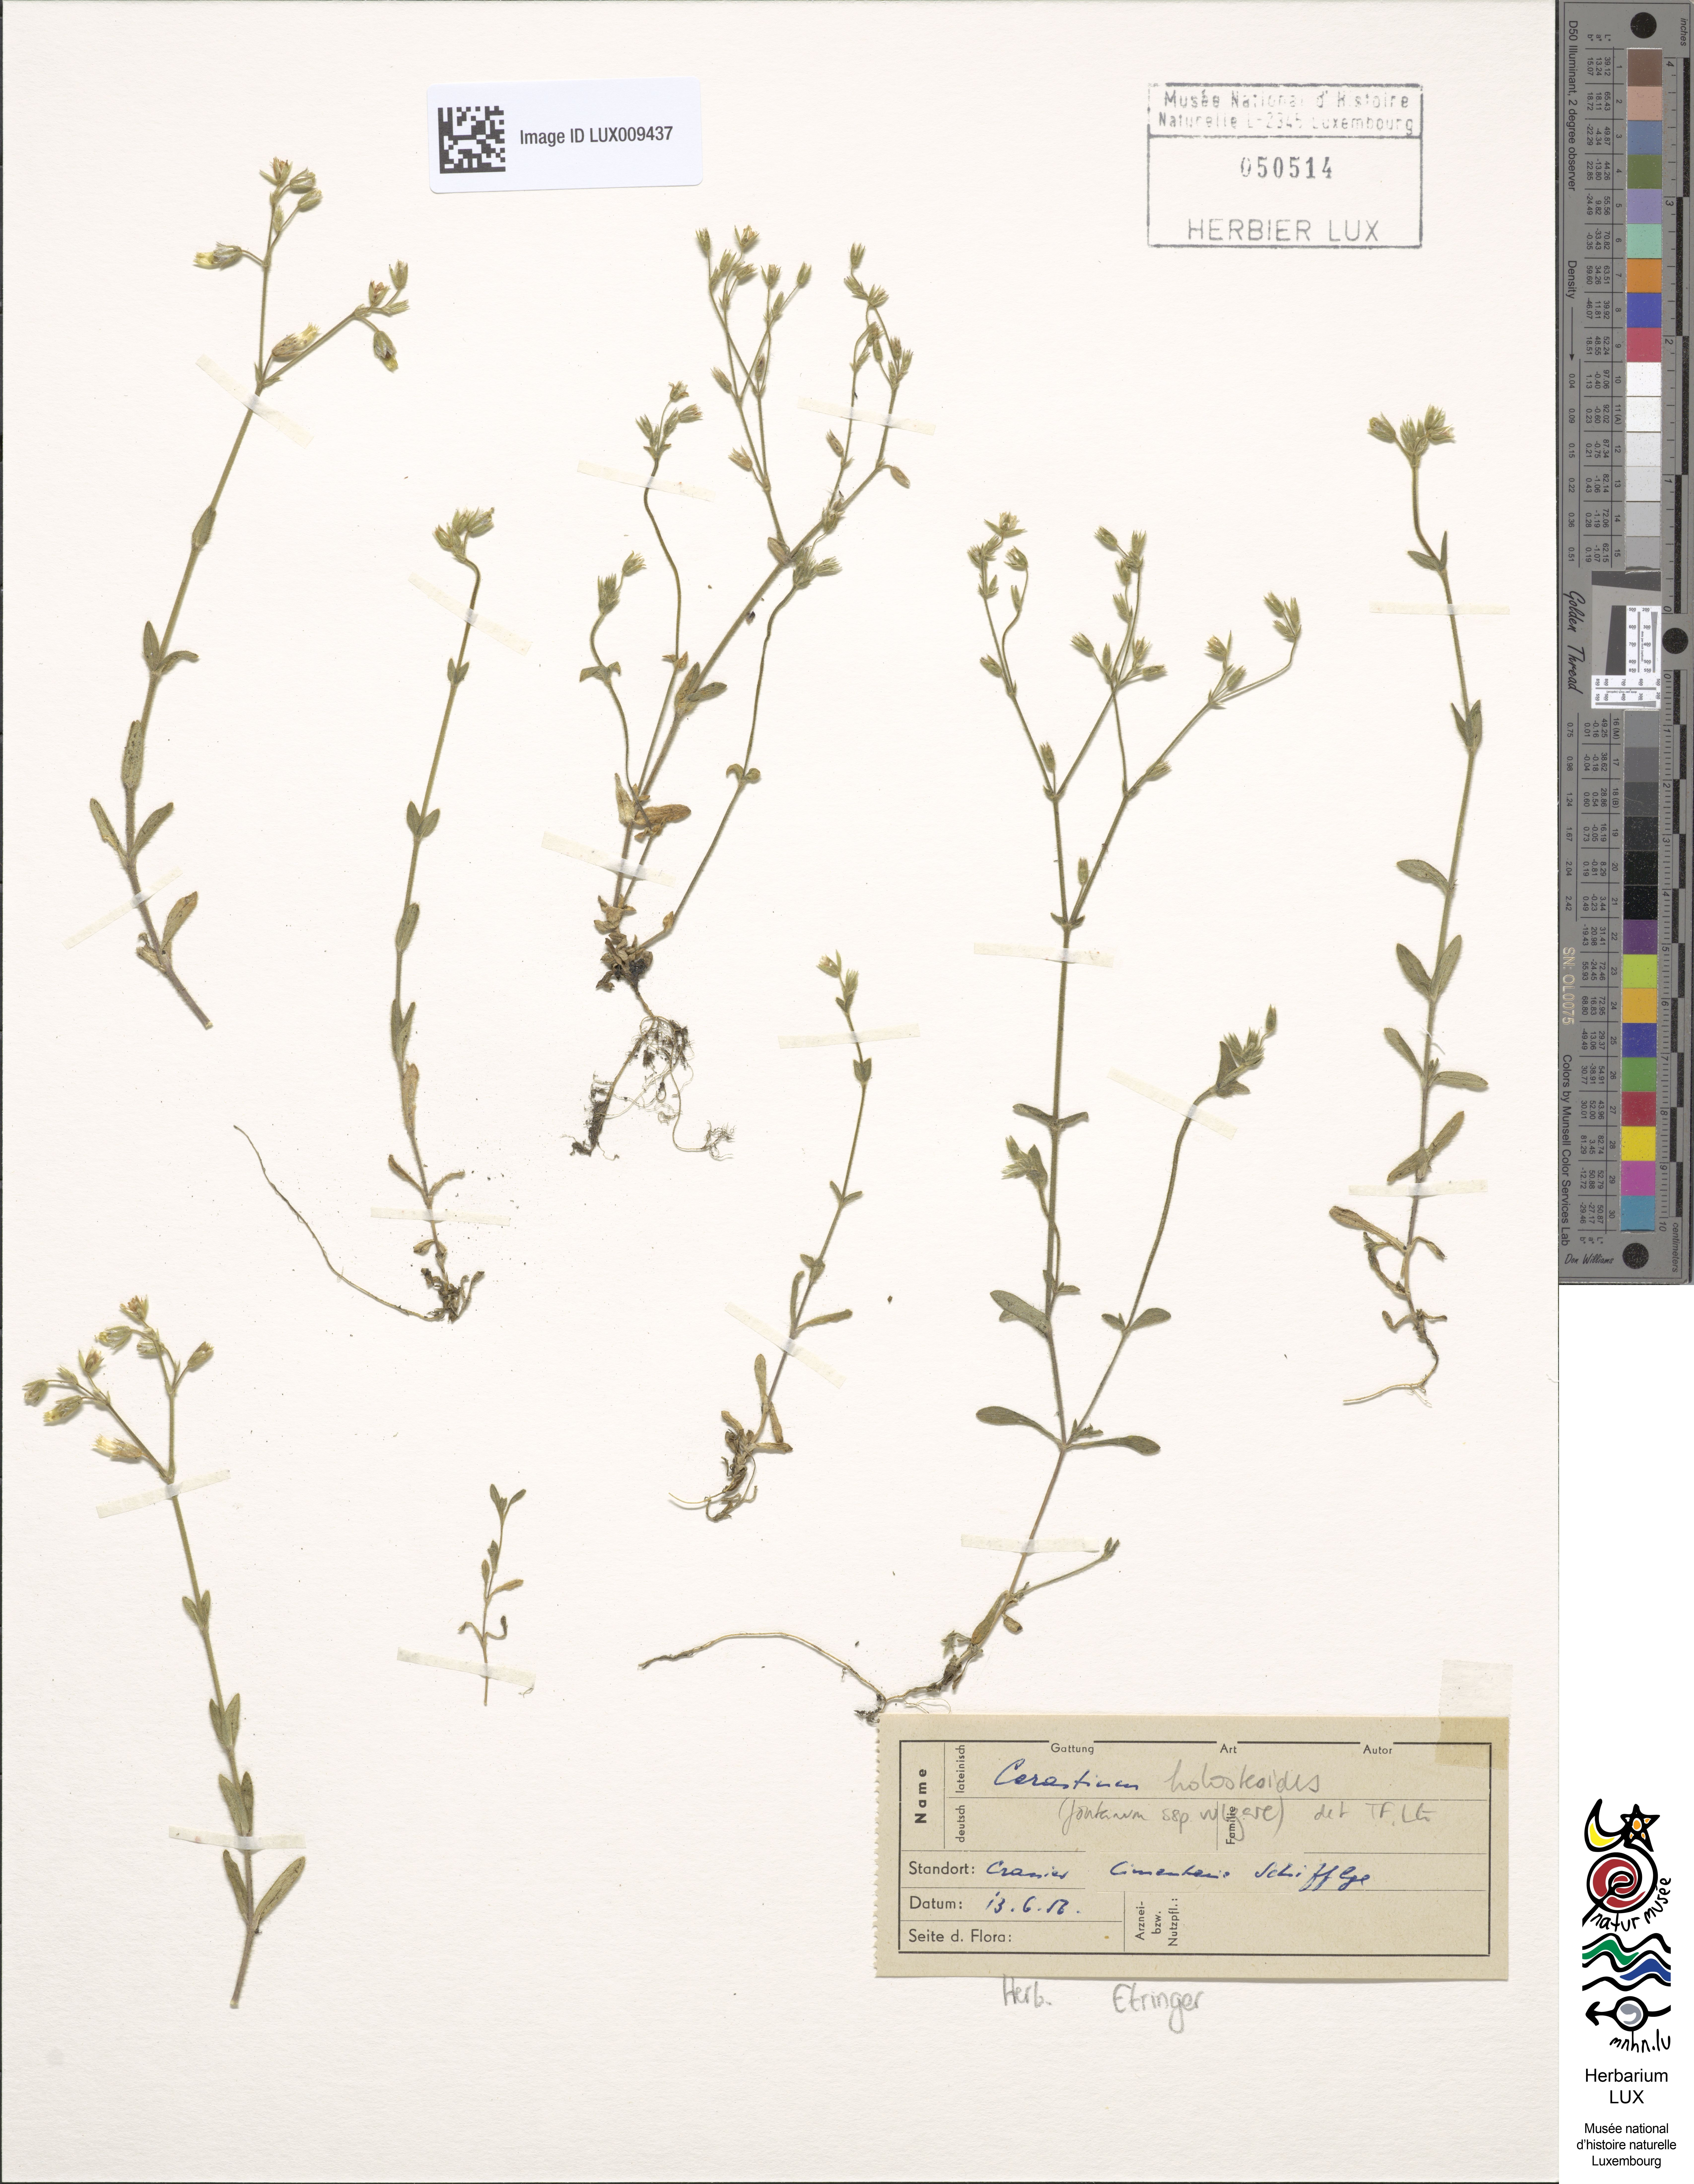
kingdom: Plantae
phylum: Tracheophyta
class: Magnoliopsida
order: Caryophyllales
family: Caryophyllaceae
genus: Cerastium
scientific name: Cerastium holosteoides
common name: Big chickweed
